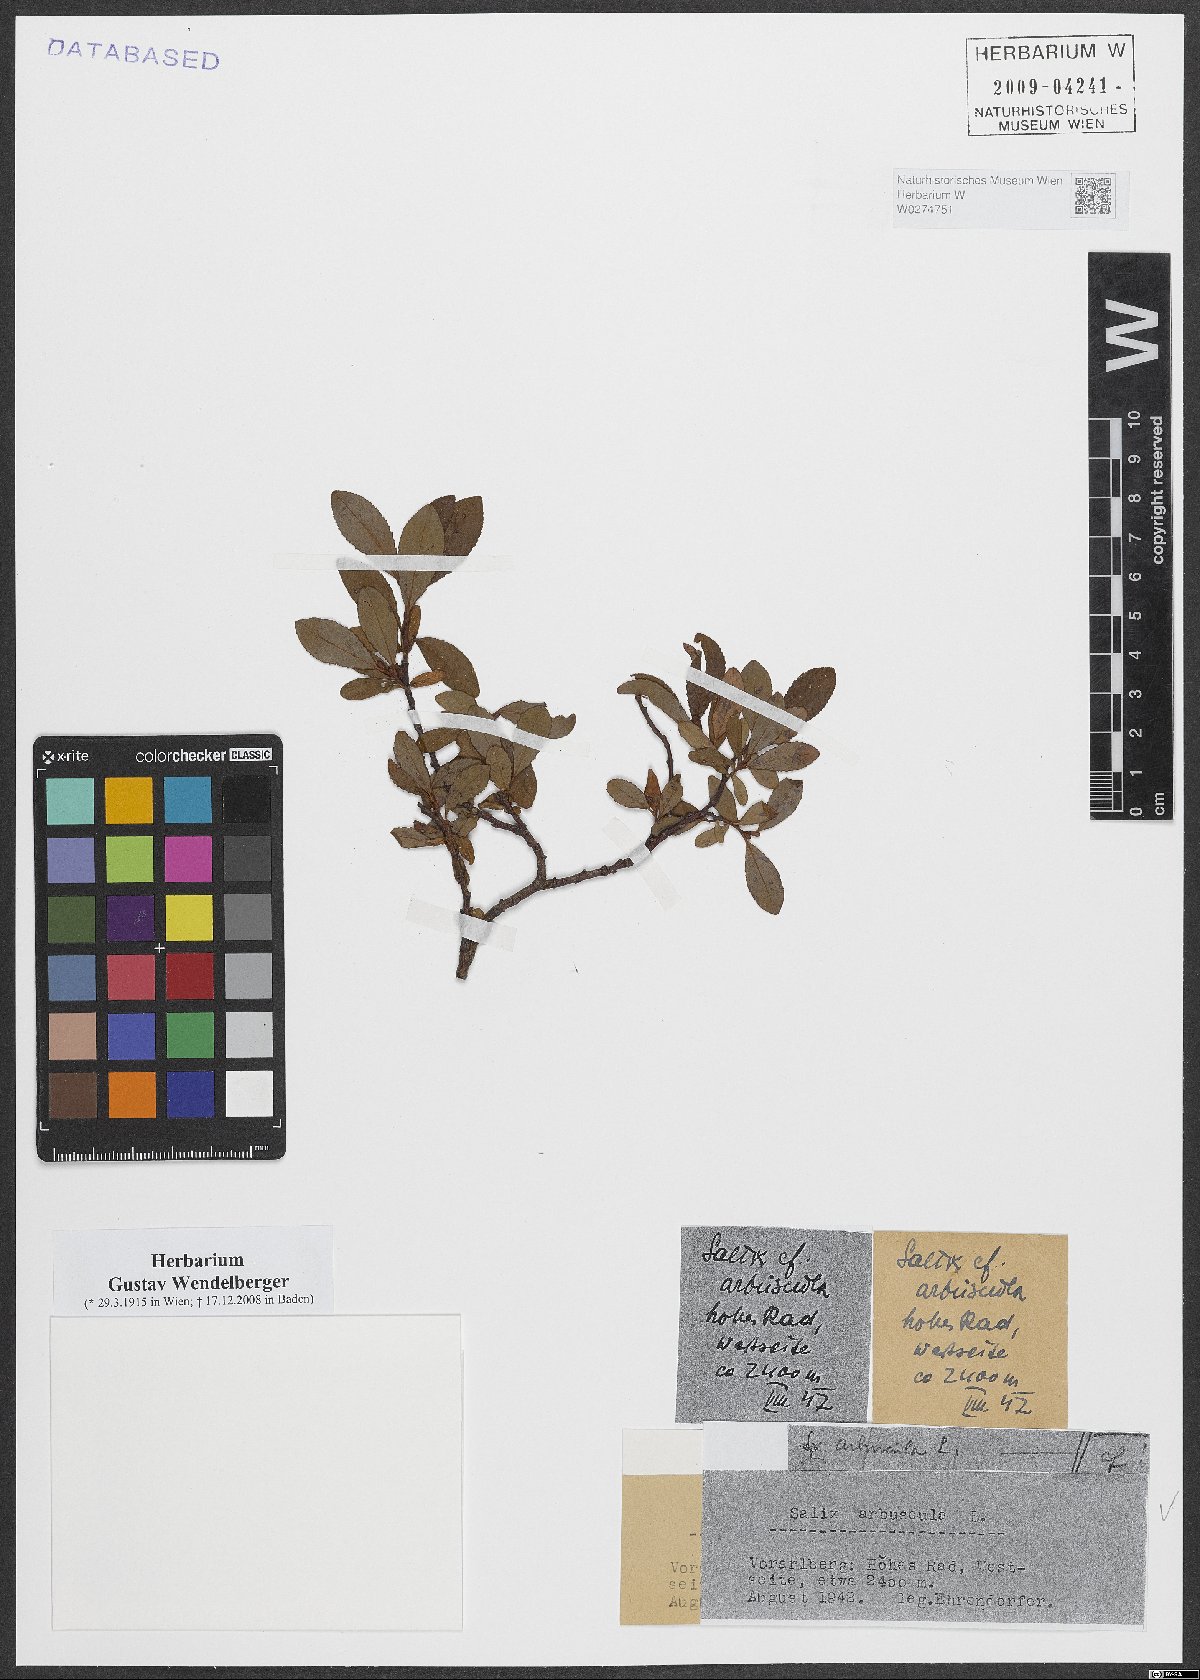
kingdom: Plantae
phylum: Tracheophyta
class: Magnoliopsida
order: Malpighiales
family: Salicaceae
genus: Salix
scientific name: Salix arbuscula
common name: Mountain willow
